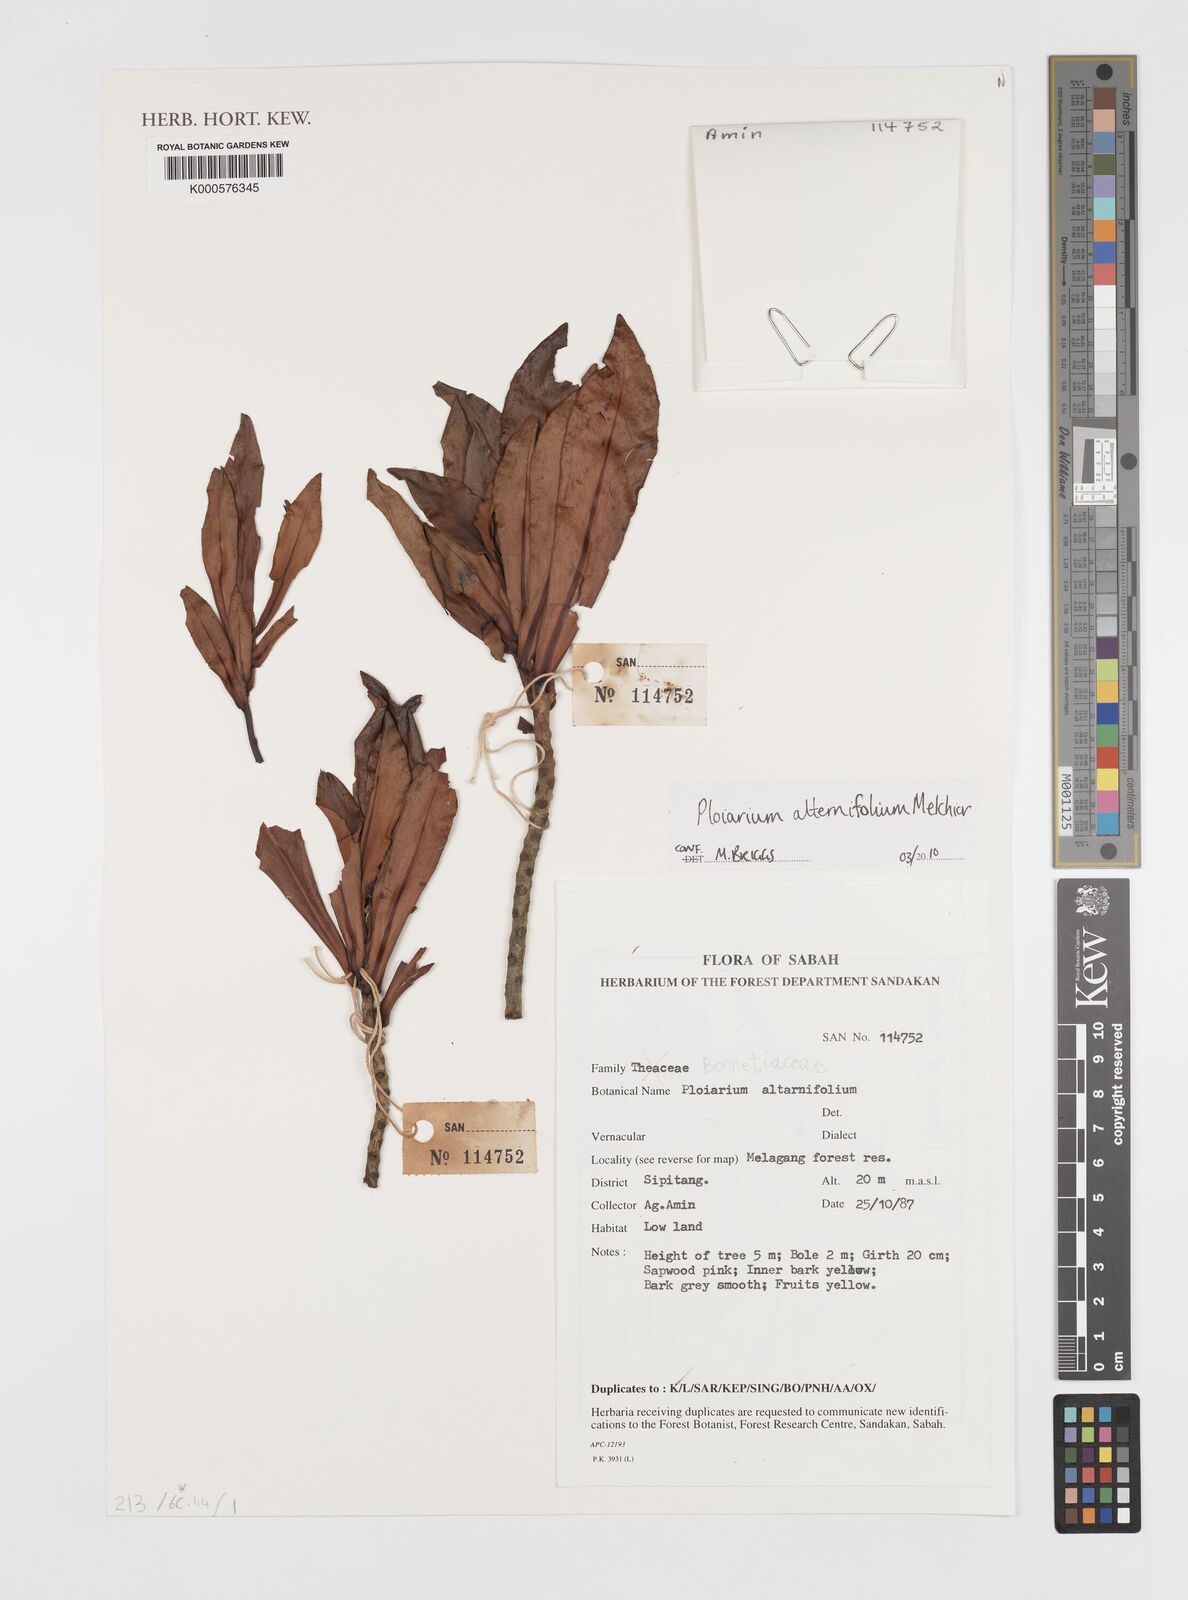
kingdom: Plantae
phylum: Tracheophyta
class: Magnoliopsida
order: Malpighiales
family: Bonnetiaceae
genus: Ploiarium
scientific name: Ploiarium alternifolium
